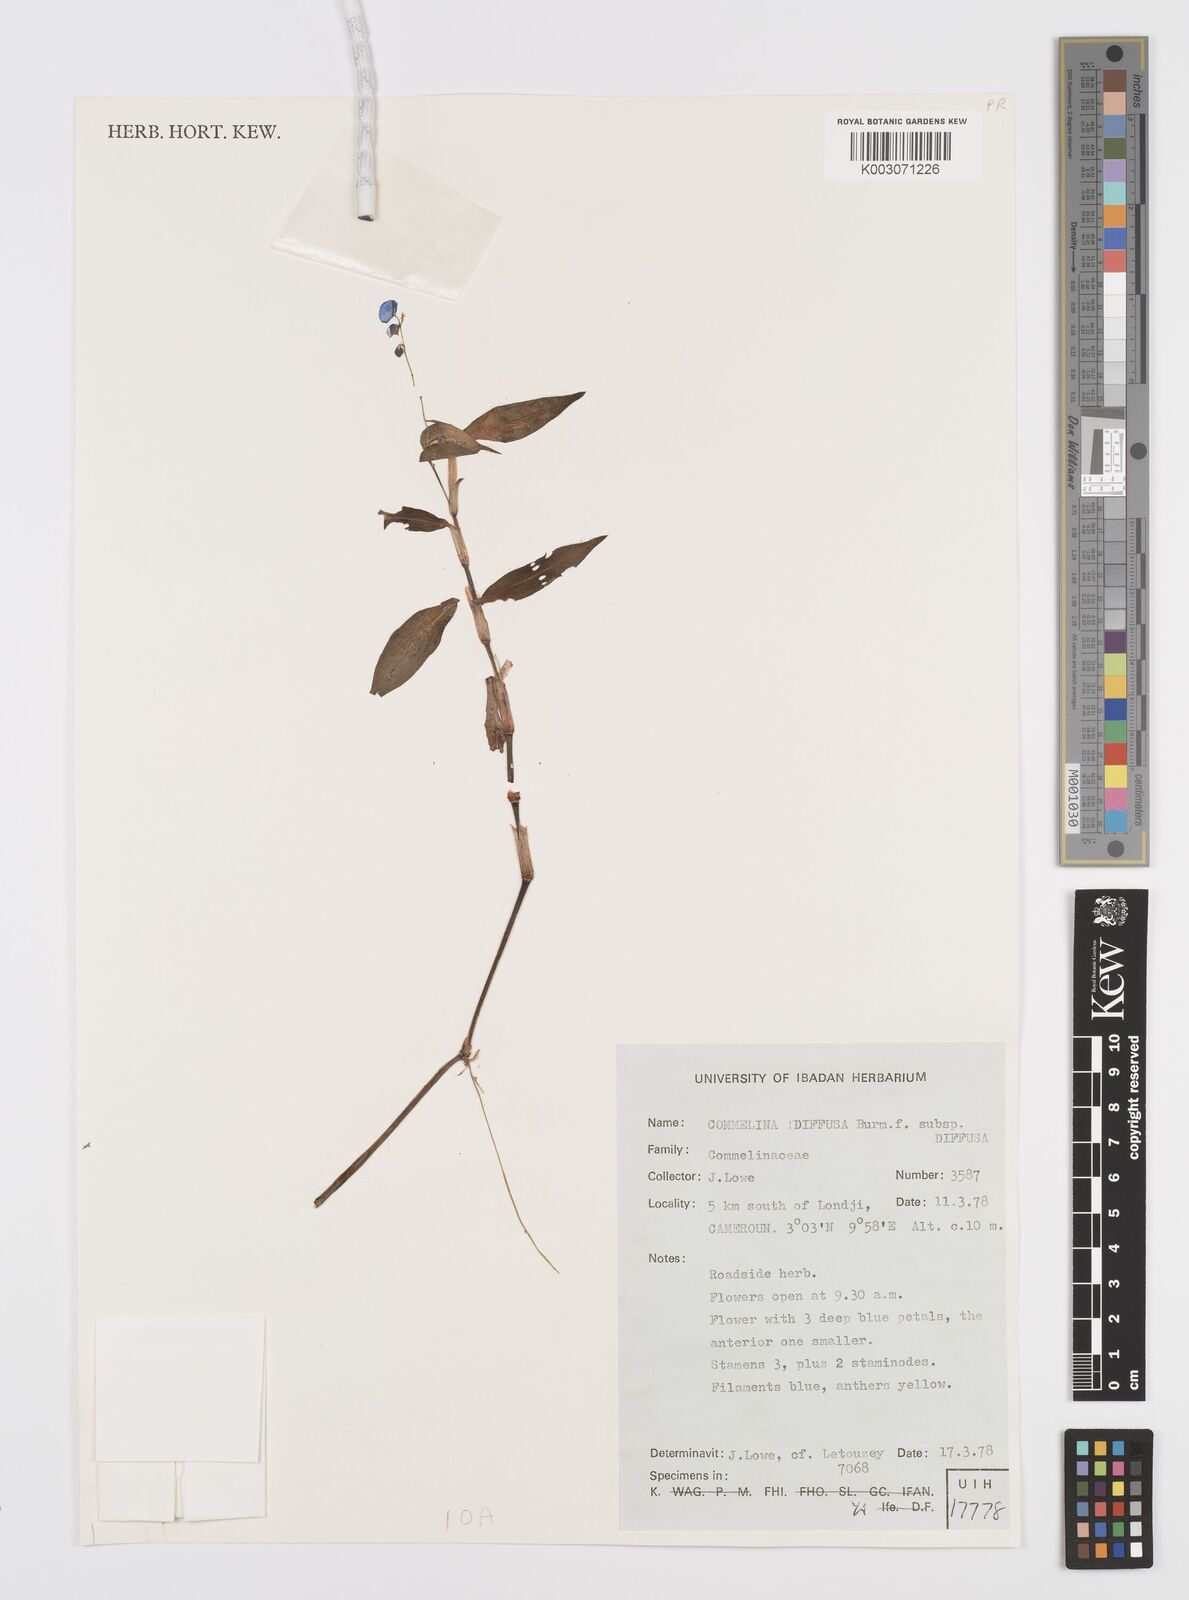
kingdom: Plantae
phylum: Tracheophyta
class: Liliopsida
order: Commelinales
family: Commelinaceae
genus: Commelina
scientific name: Commelina diffusa
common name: Climbing dayflower
